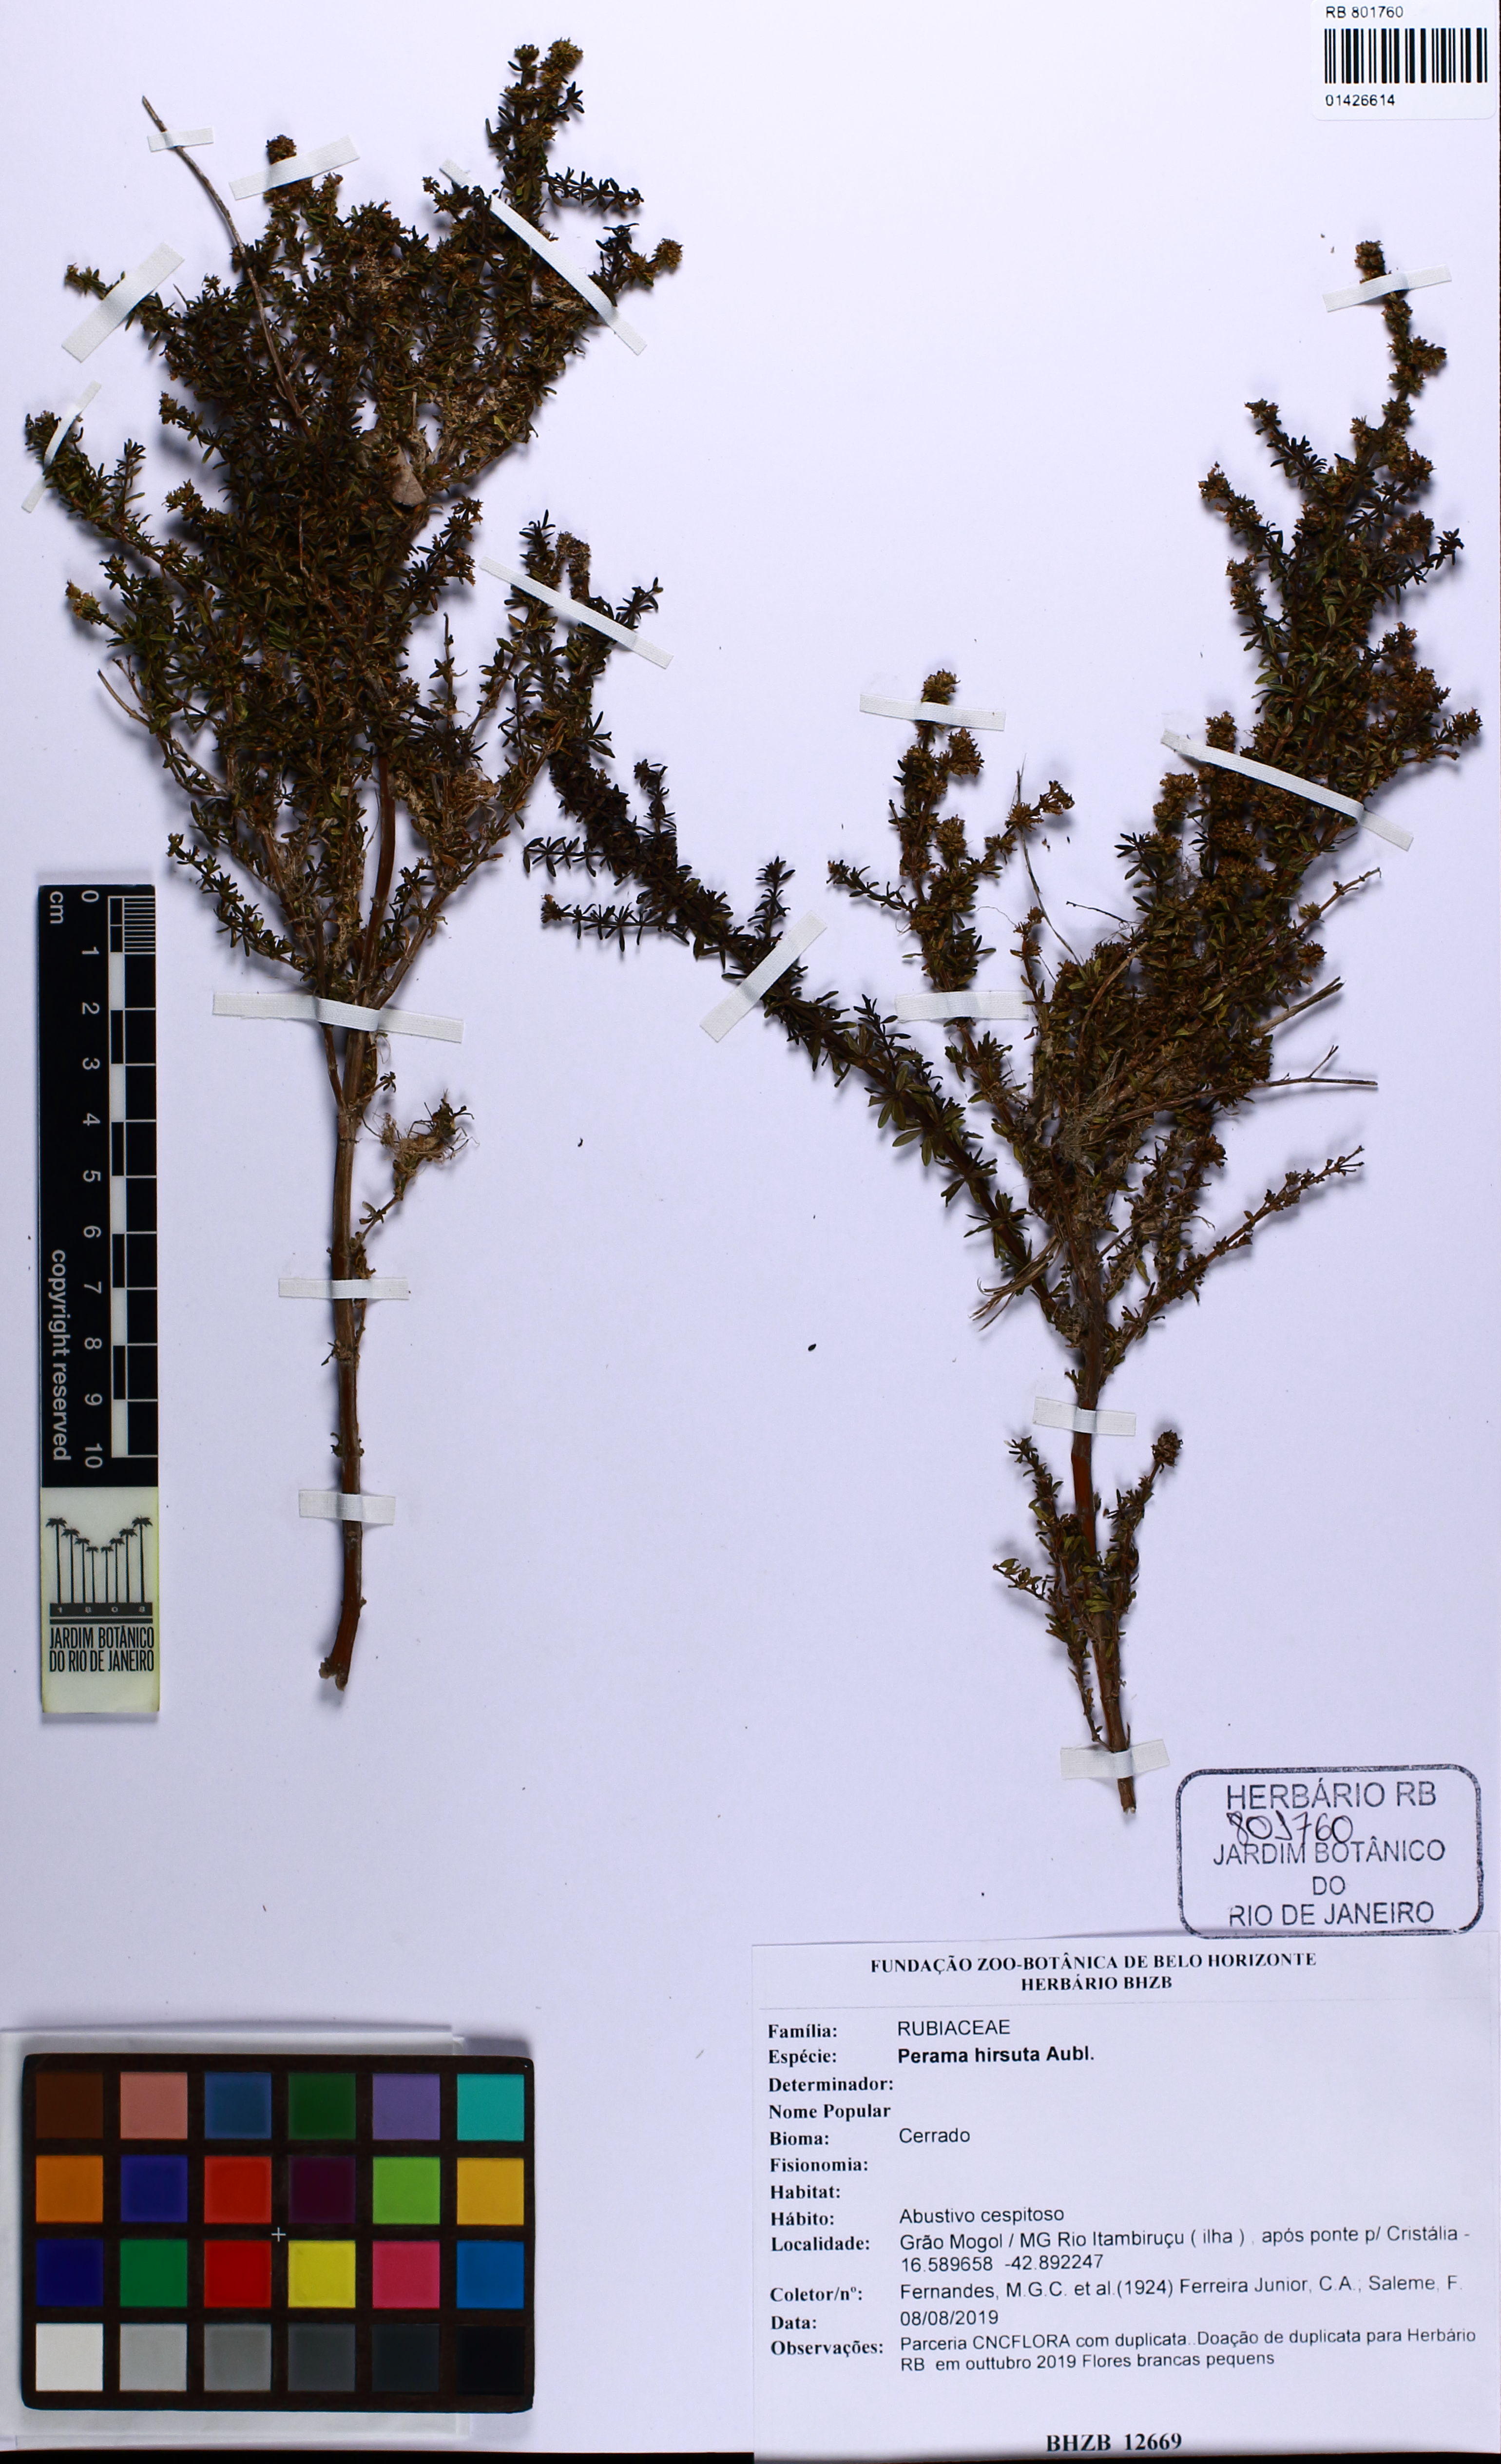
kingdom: Plantae
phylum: Tracheophyta
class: Magnoliopsida
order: Gentianales
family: Rubiaceae
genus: Perama
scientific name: Perama hirsuta
